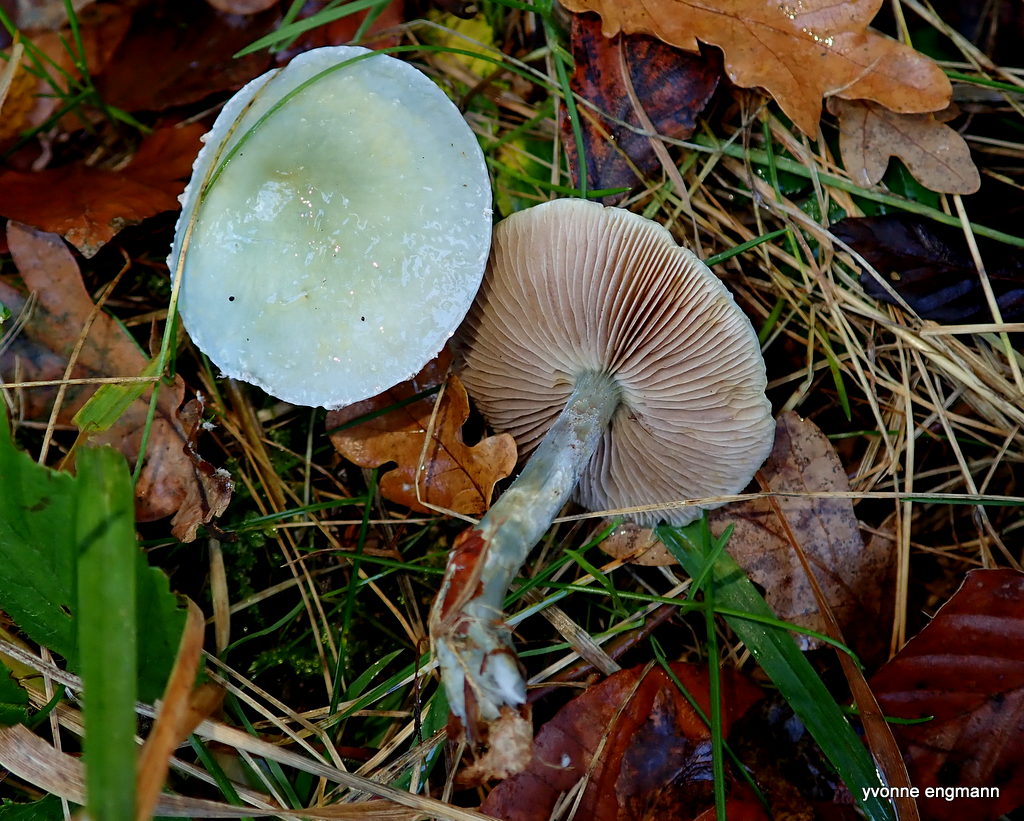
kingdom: Fungi
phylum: Basidiomycota
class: Agaricomycetes
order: Agaricales
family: Strophariaceae
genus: Stropharia
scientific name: Stropharia cyanea
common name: blågrøn bredblad
